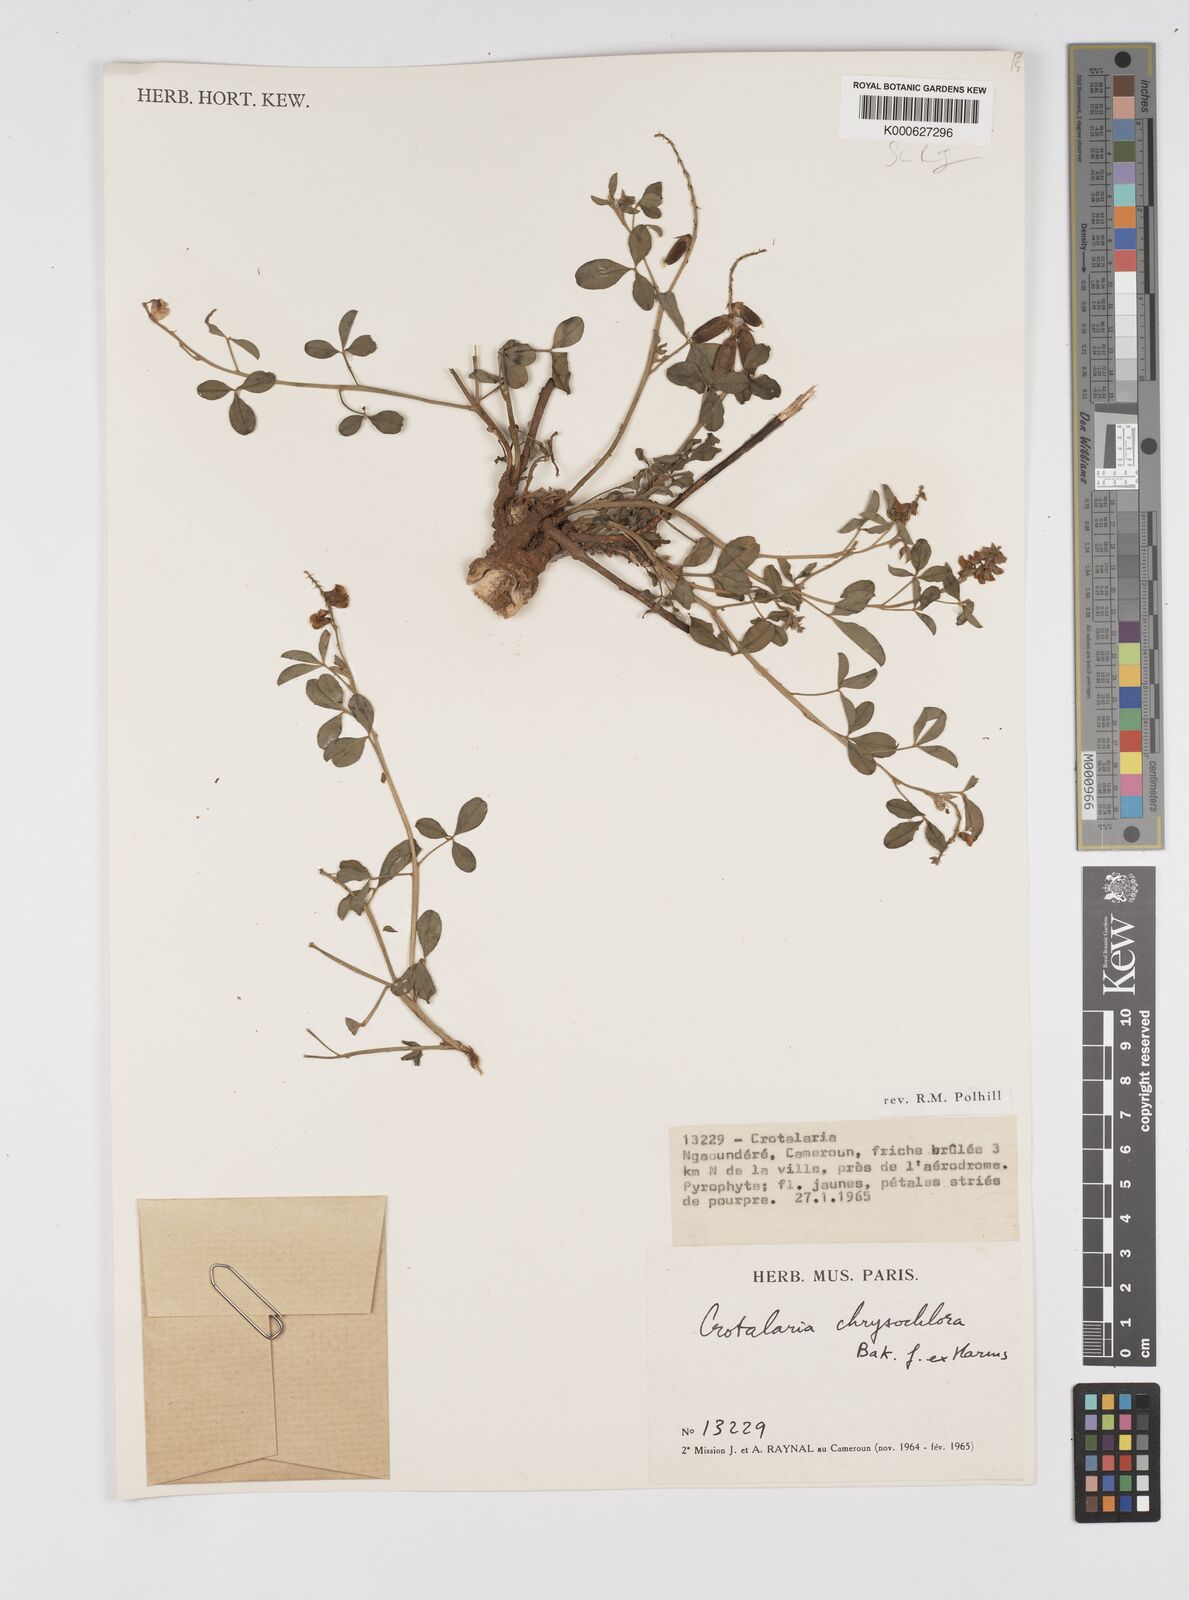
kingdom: Plantae
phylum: Tracheophyta
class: Magnoliopsida
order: Fabales
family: Fabaceae
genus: Crotalaria
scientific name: Crotalaria chrysochlora ex
